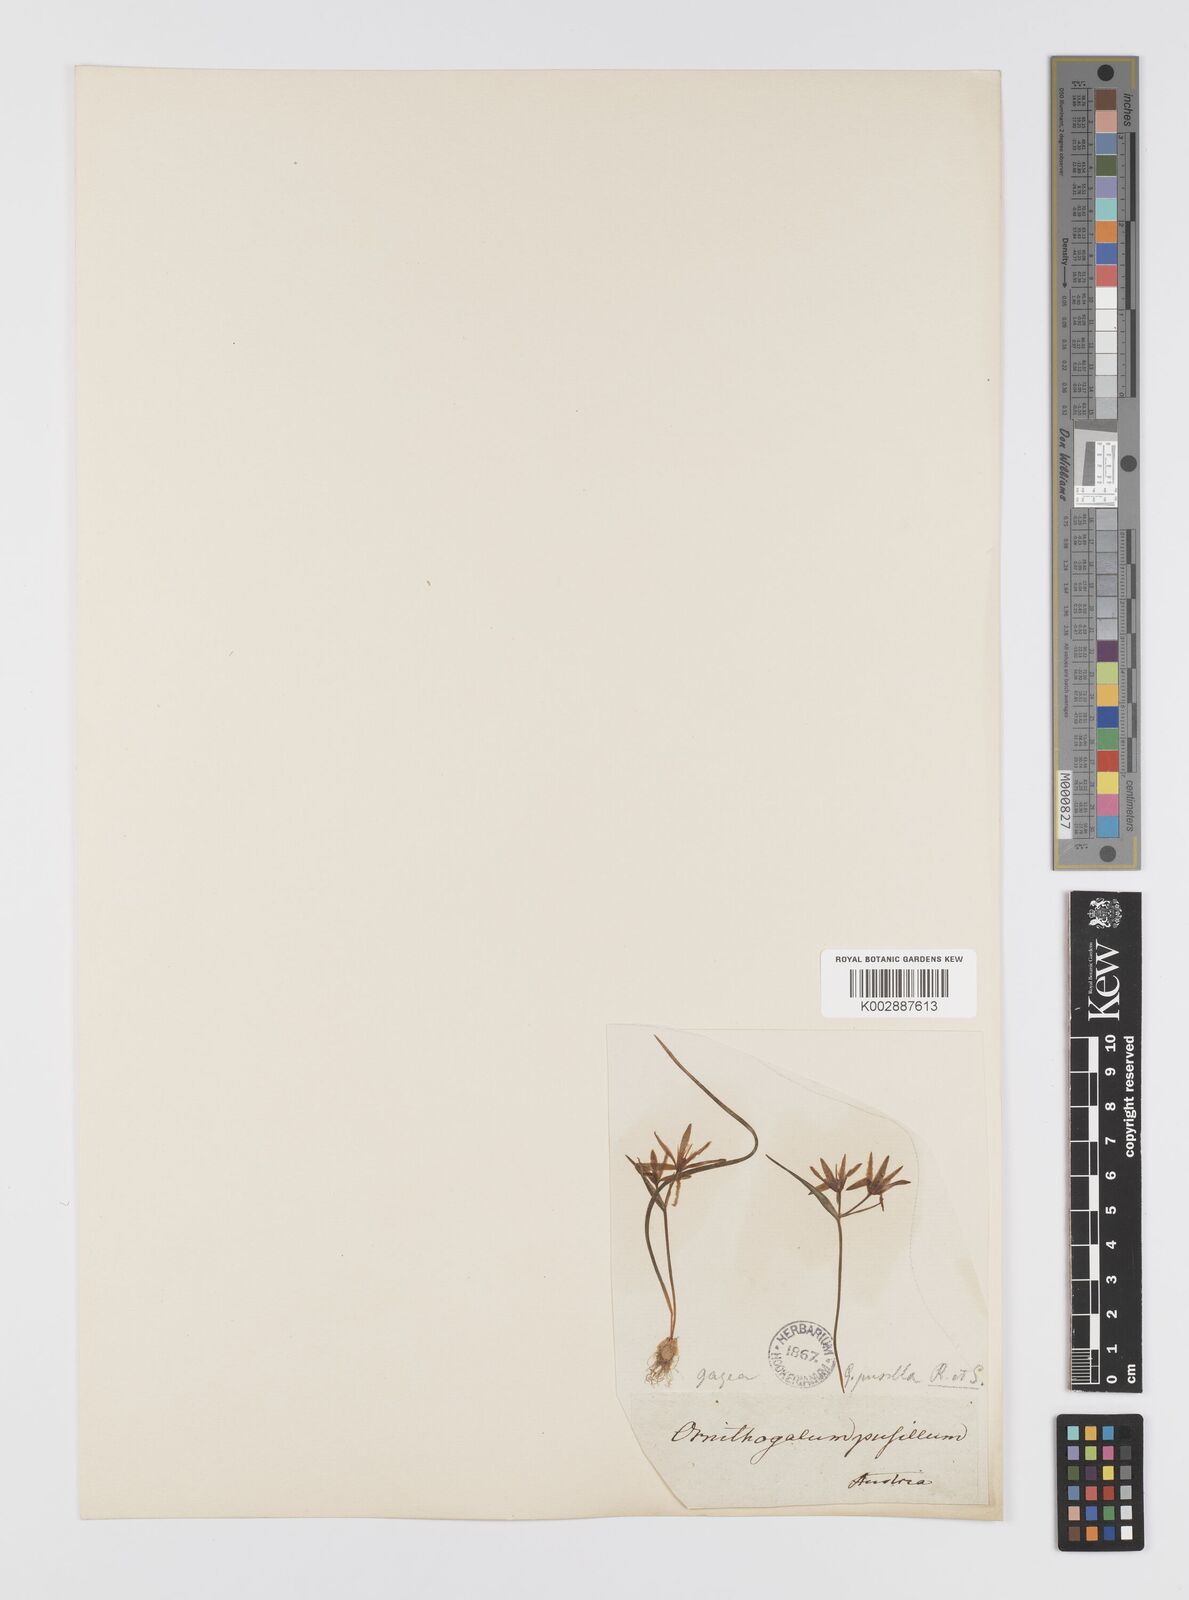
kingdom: Plantae
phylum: Tracheophyta
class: Liliopsida
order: Liliales
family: Liliaceae
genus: Gagea
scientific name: Gagea pusilla
